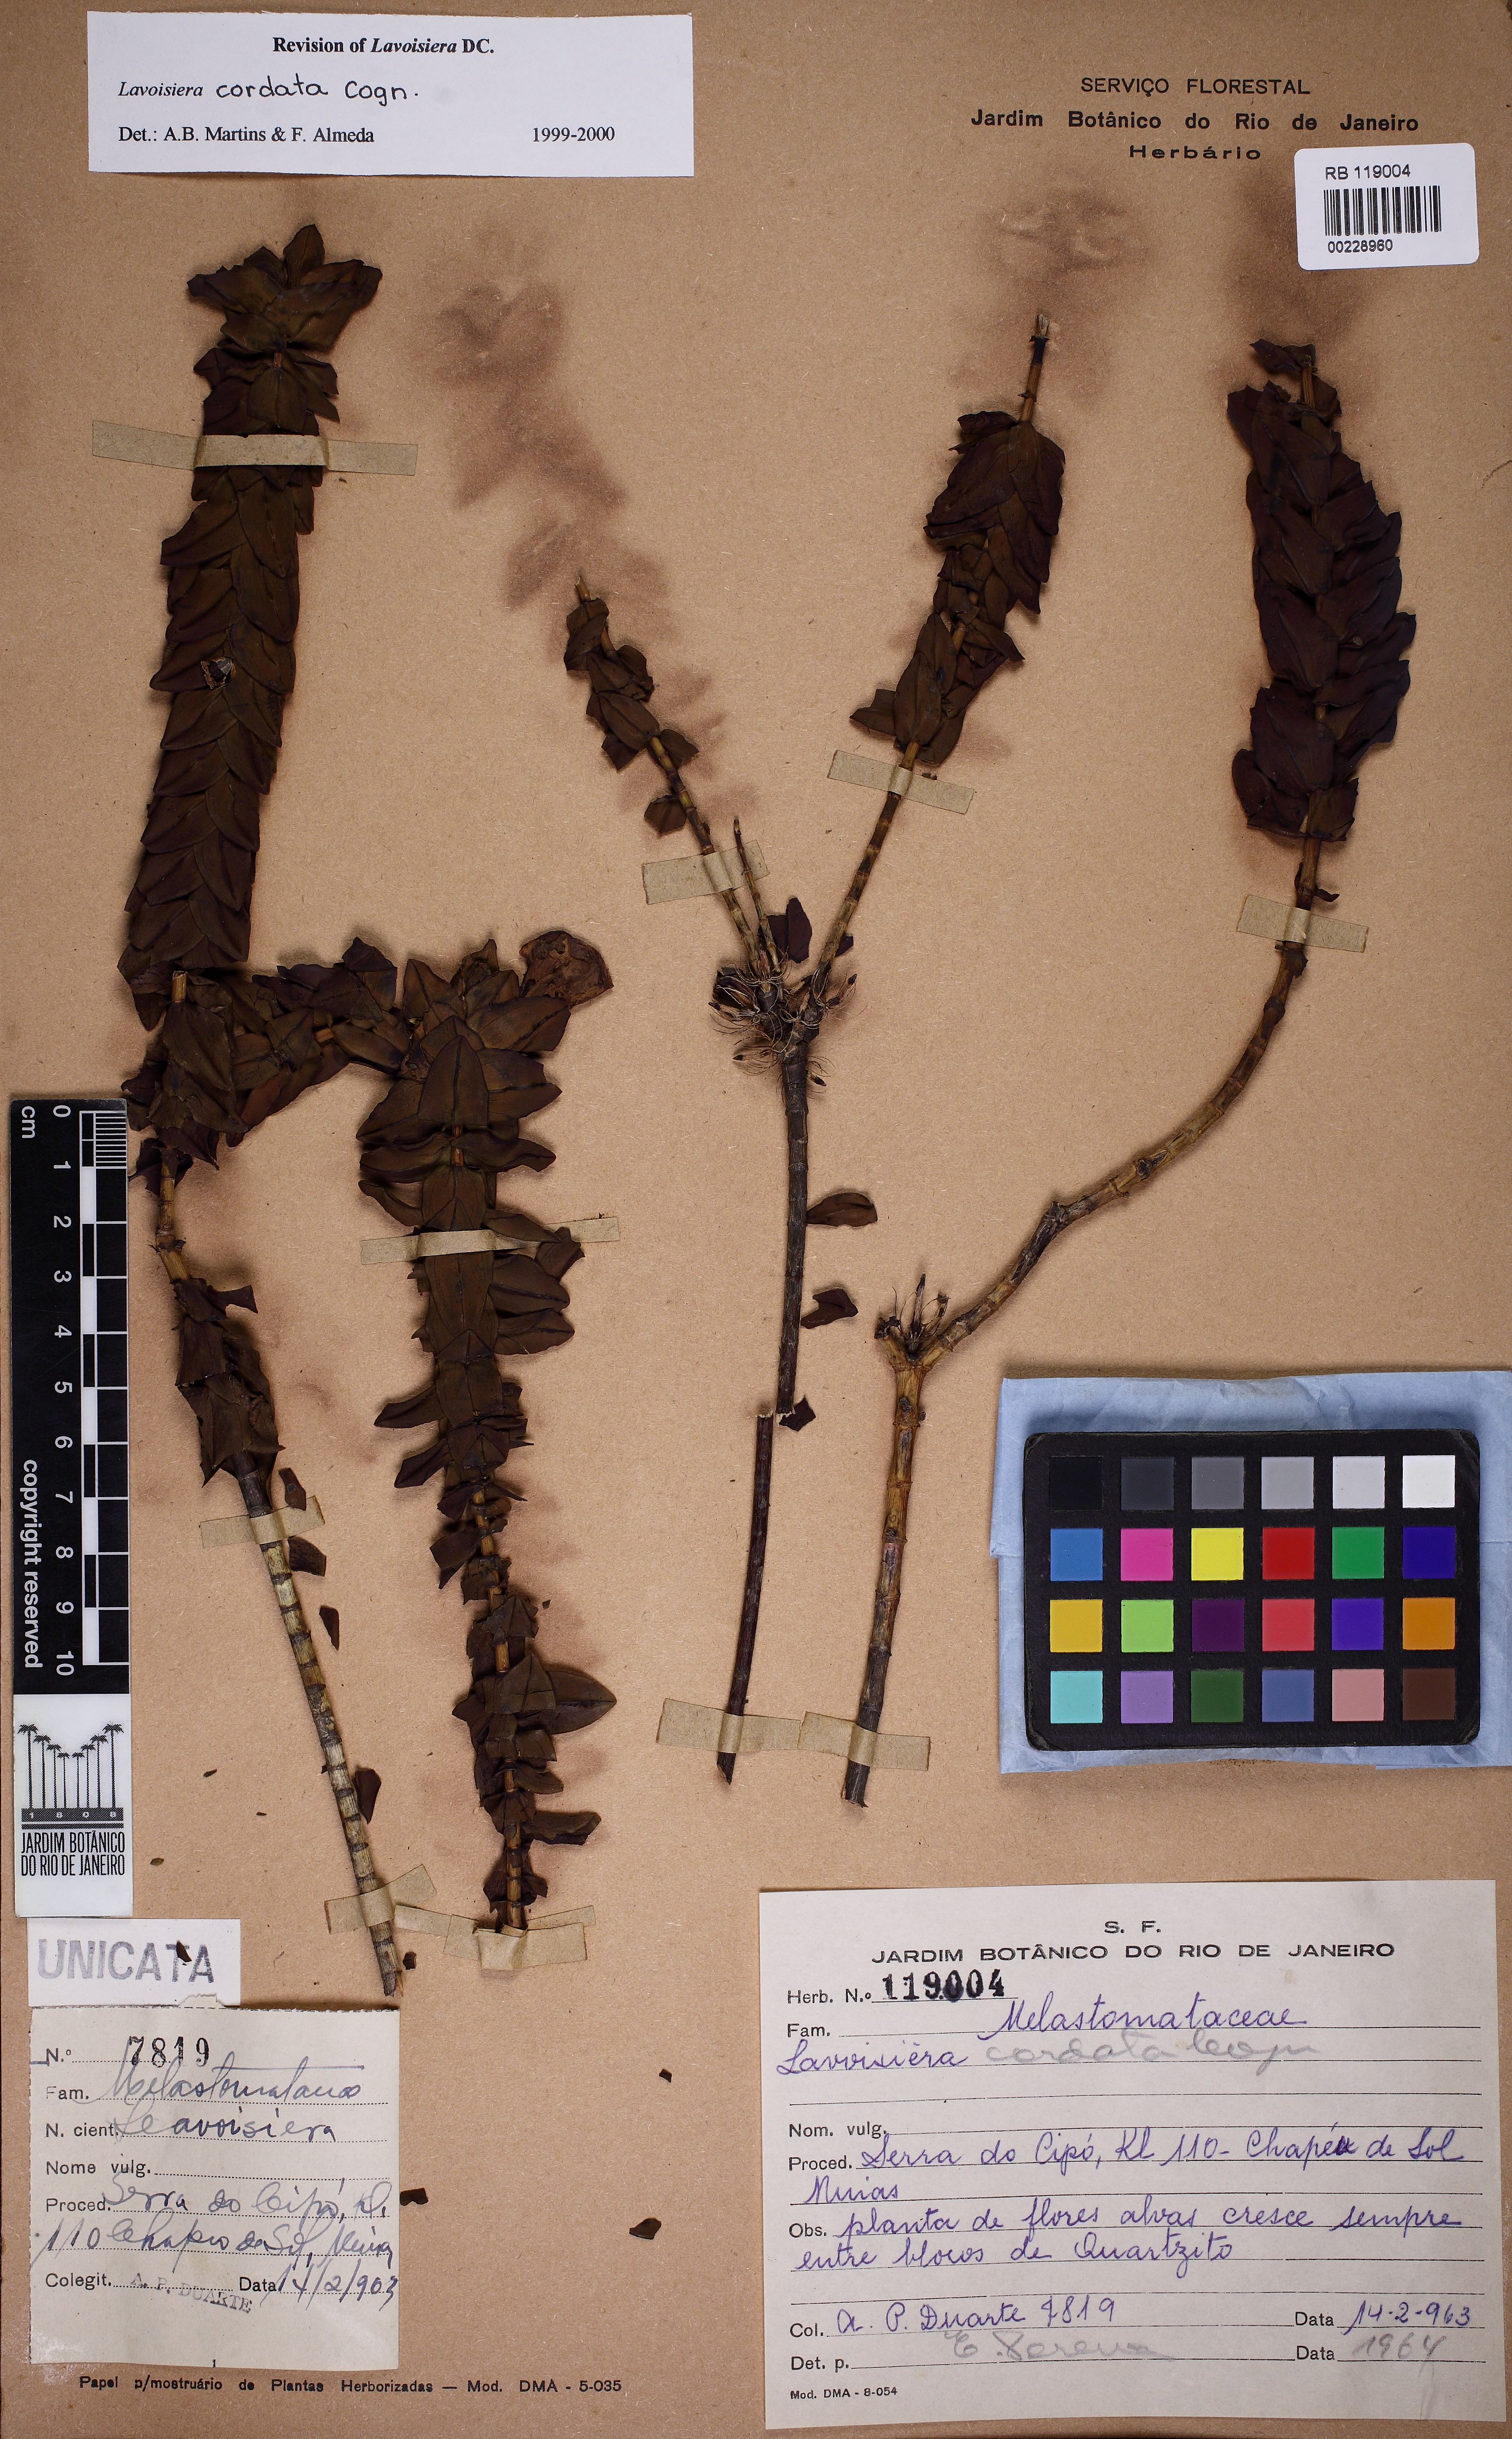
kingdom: Plantae
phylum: Tracheophyta
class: Magnoliopsida
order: Myrtales
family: Melastomataceae
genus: Microlicia
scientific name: Microlicia cordifolia
